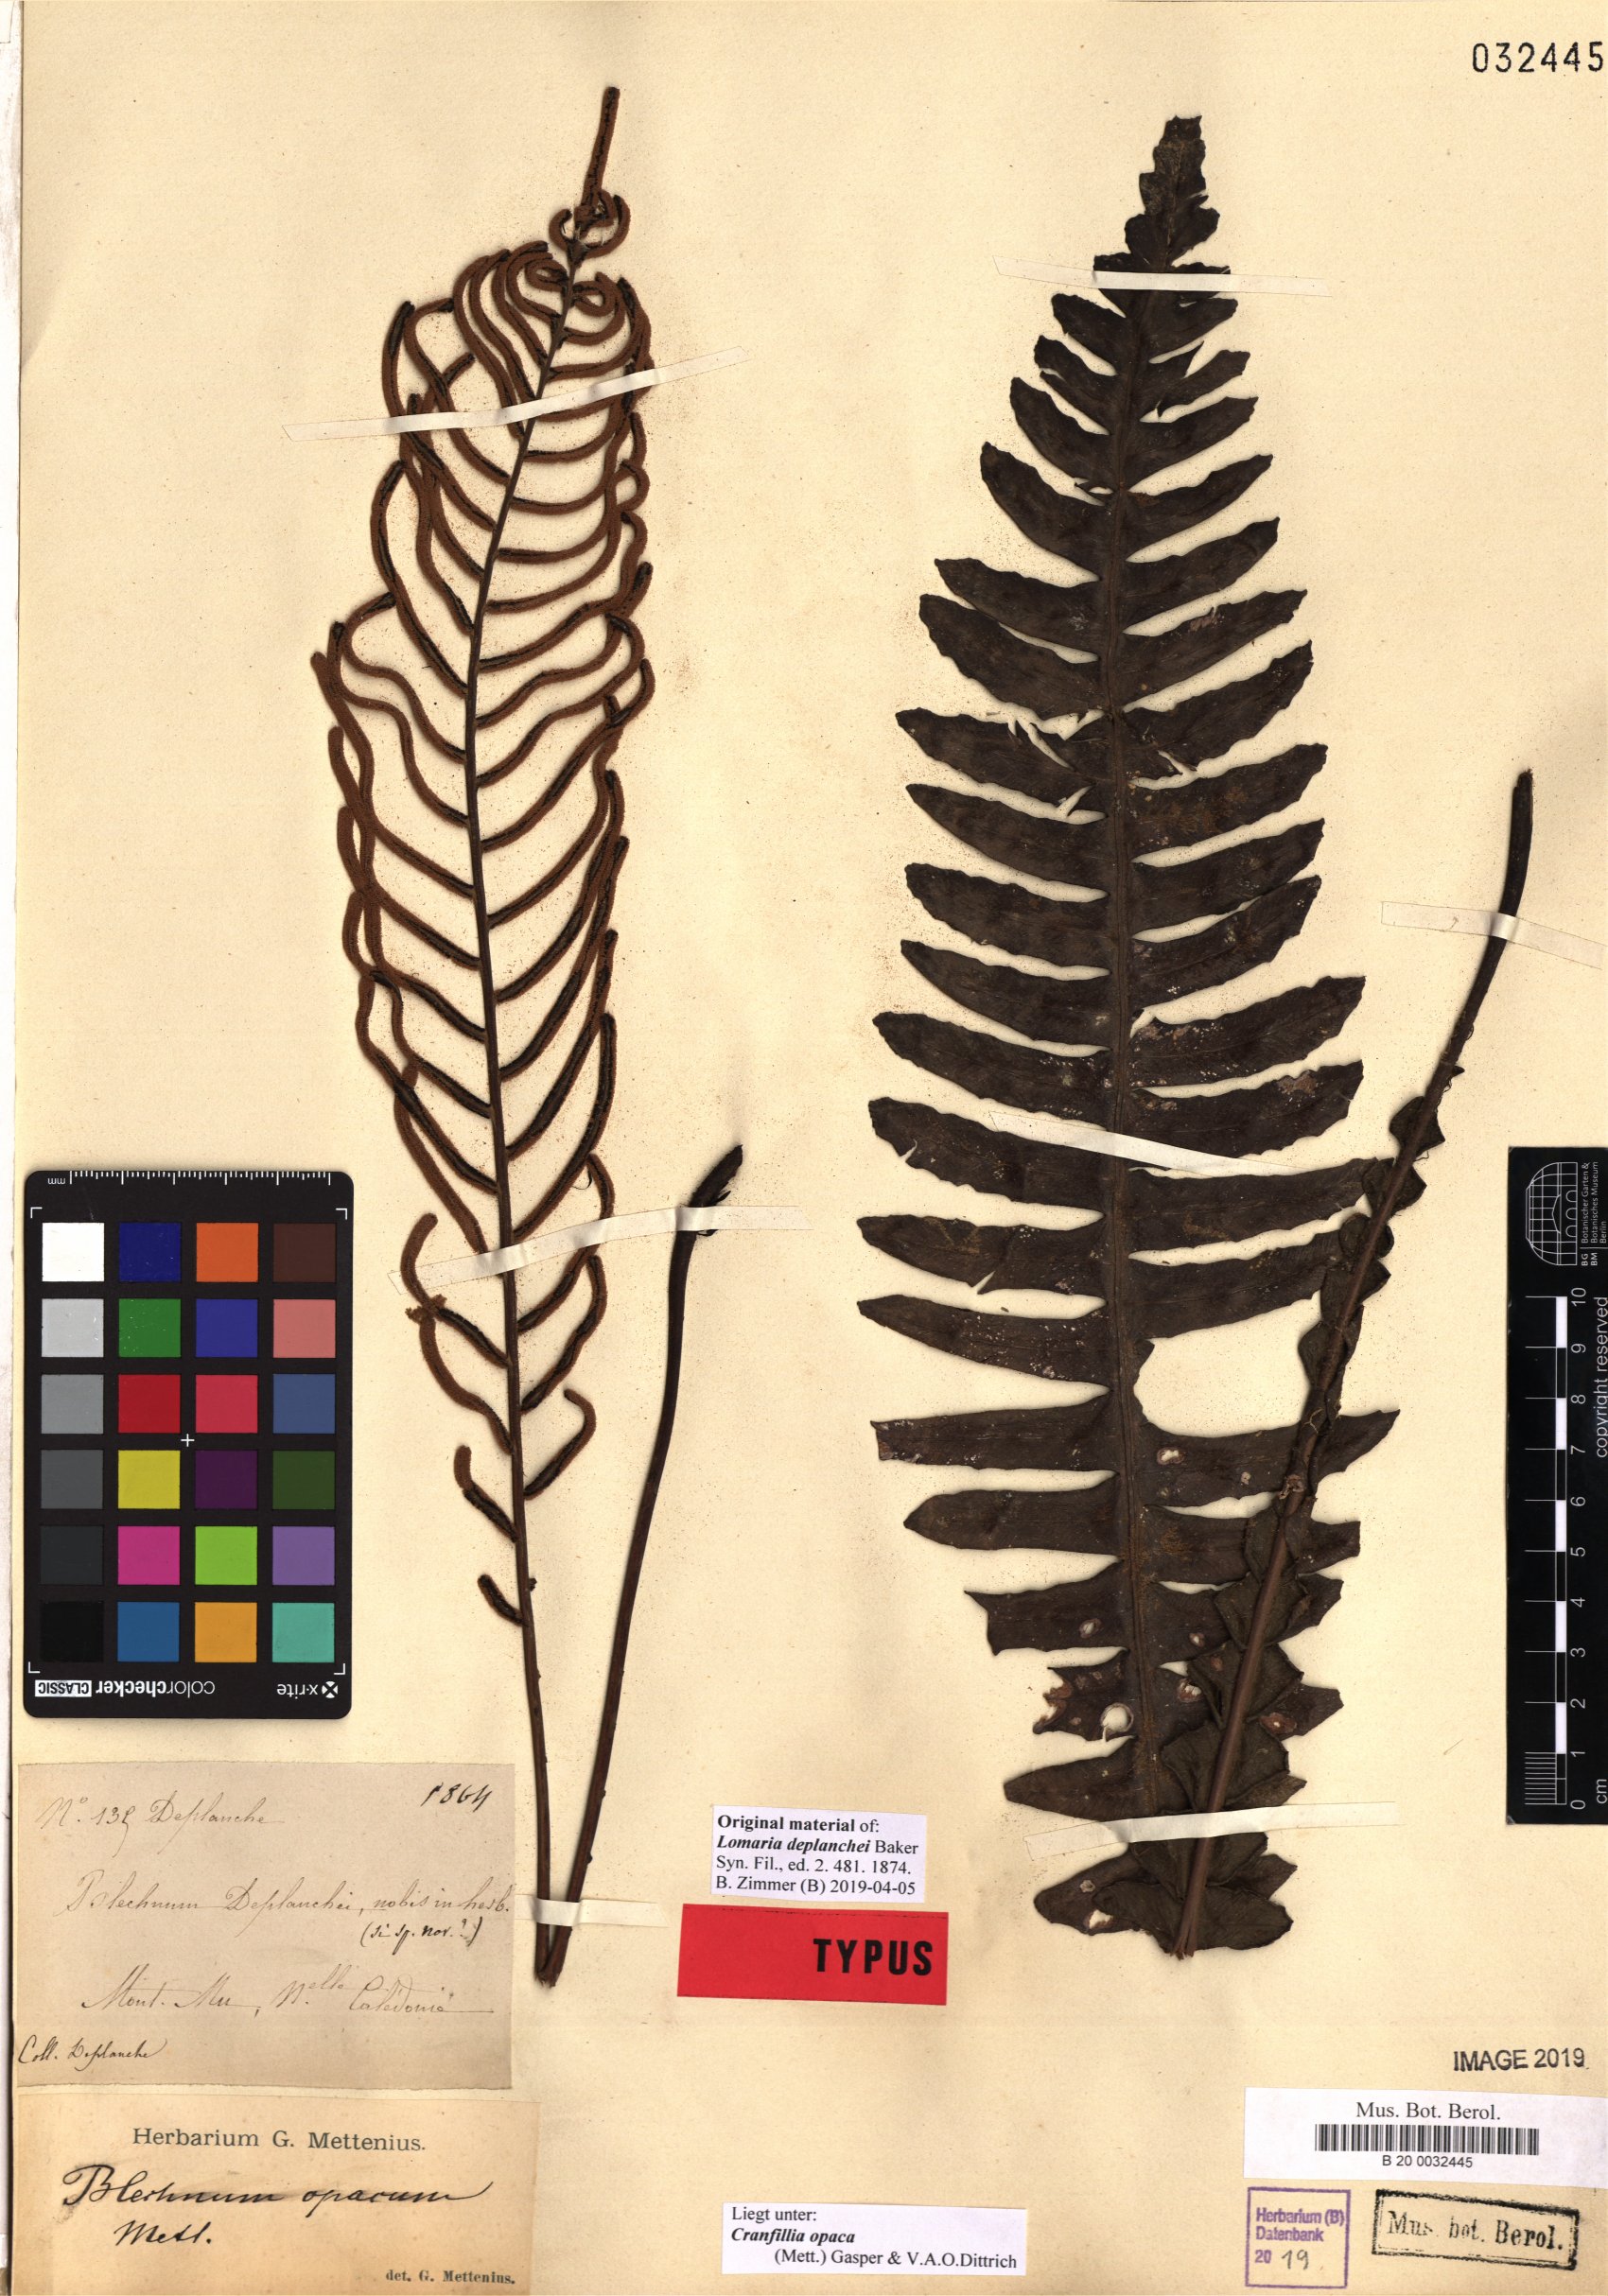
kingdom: Plantae
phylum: Tracheophyta
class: Polypodiopsida
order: Polypodiales
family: Blechnaceae
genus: Cranfillia
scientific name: Cranfillia opaca
